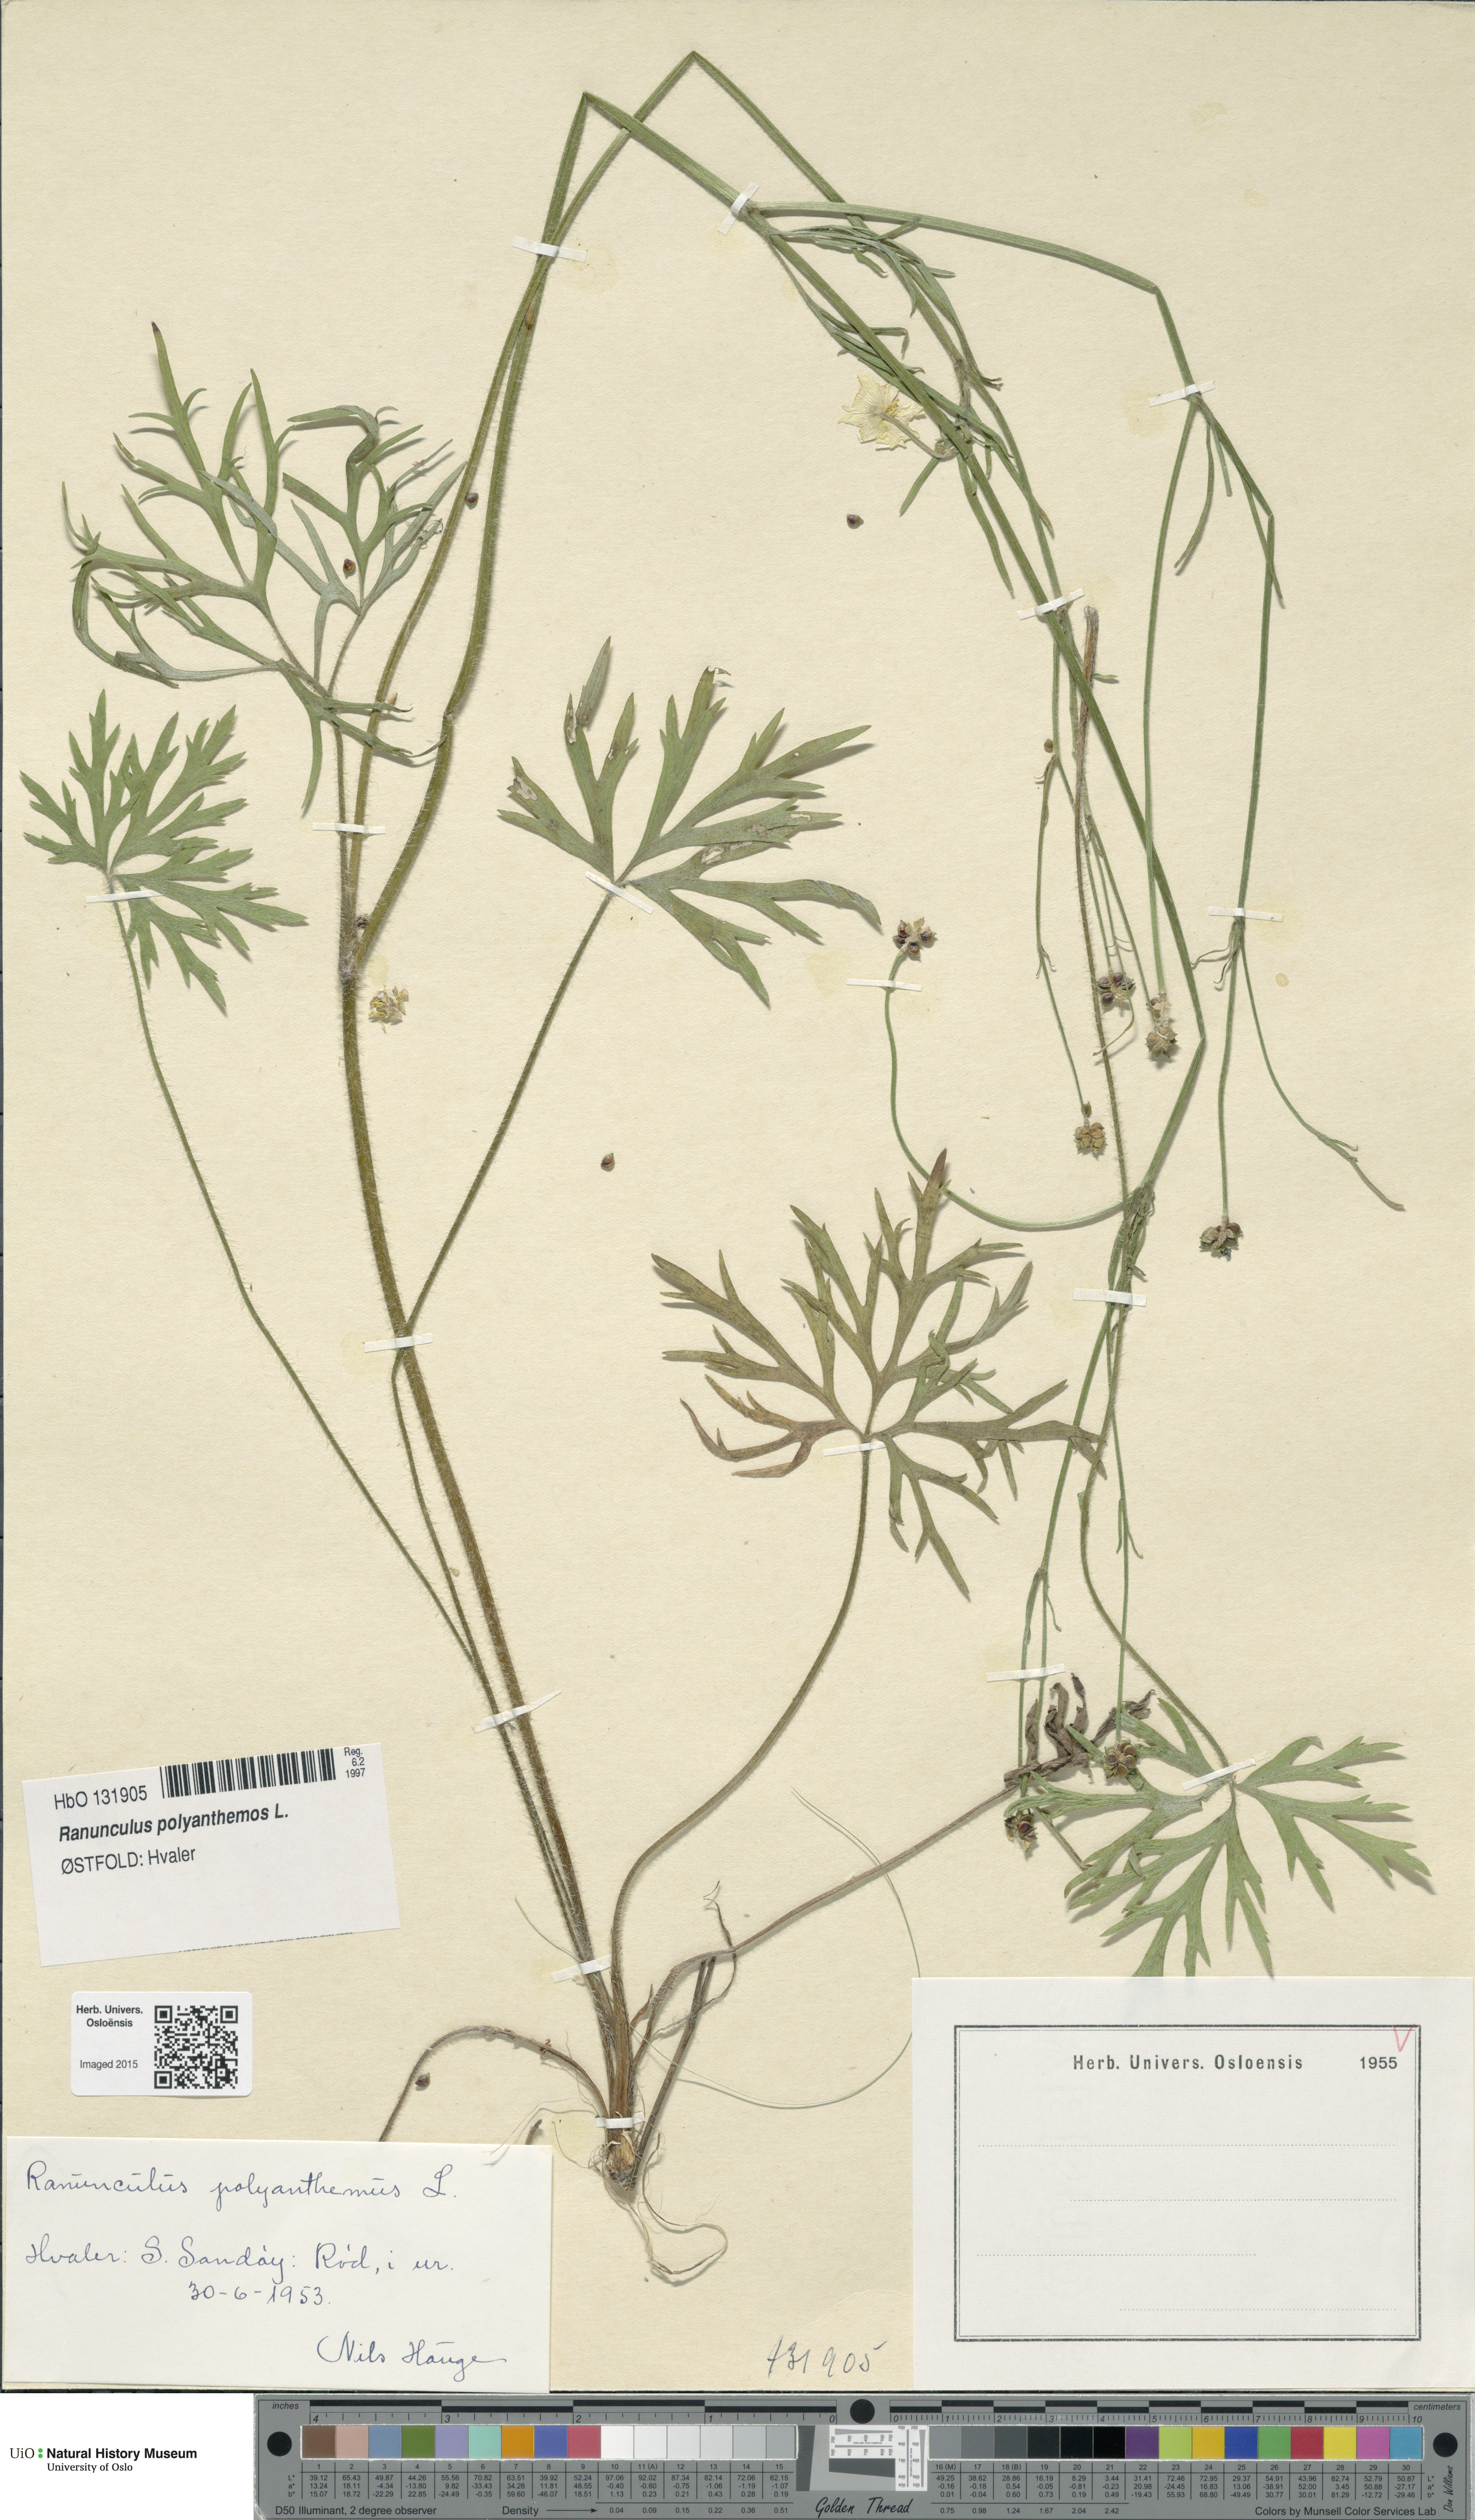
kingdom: Plantae
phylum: Tracheophyta
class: Magnoliopsida
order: Ranunculales
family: Ranunculaceae
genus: Ranunculus
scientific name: Ranunculus polyanthemos
